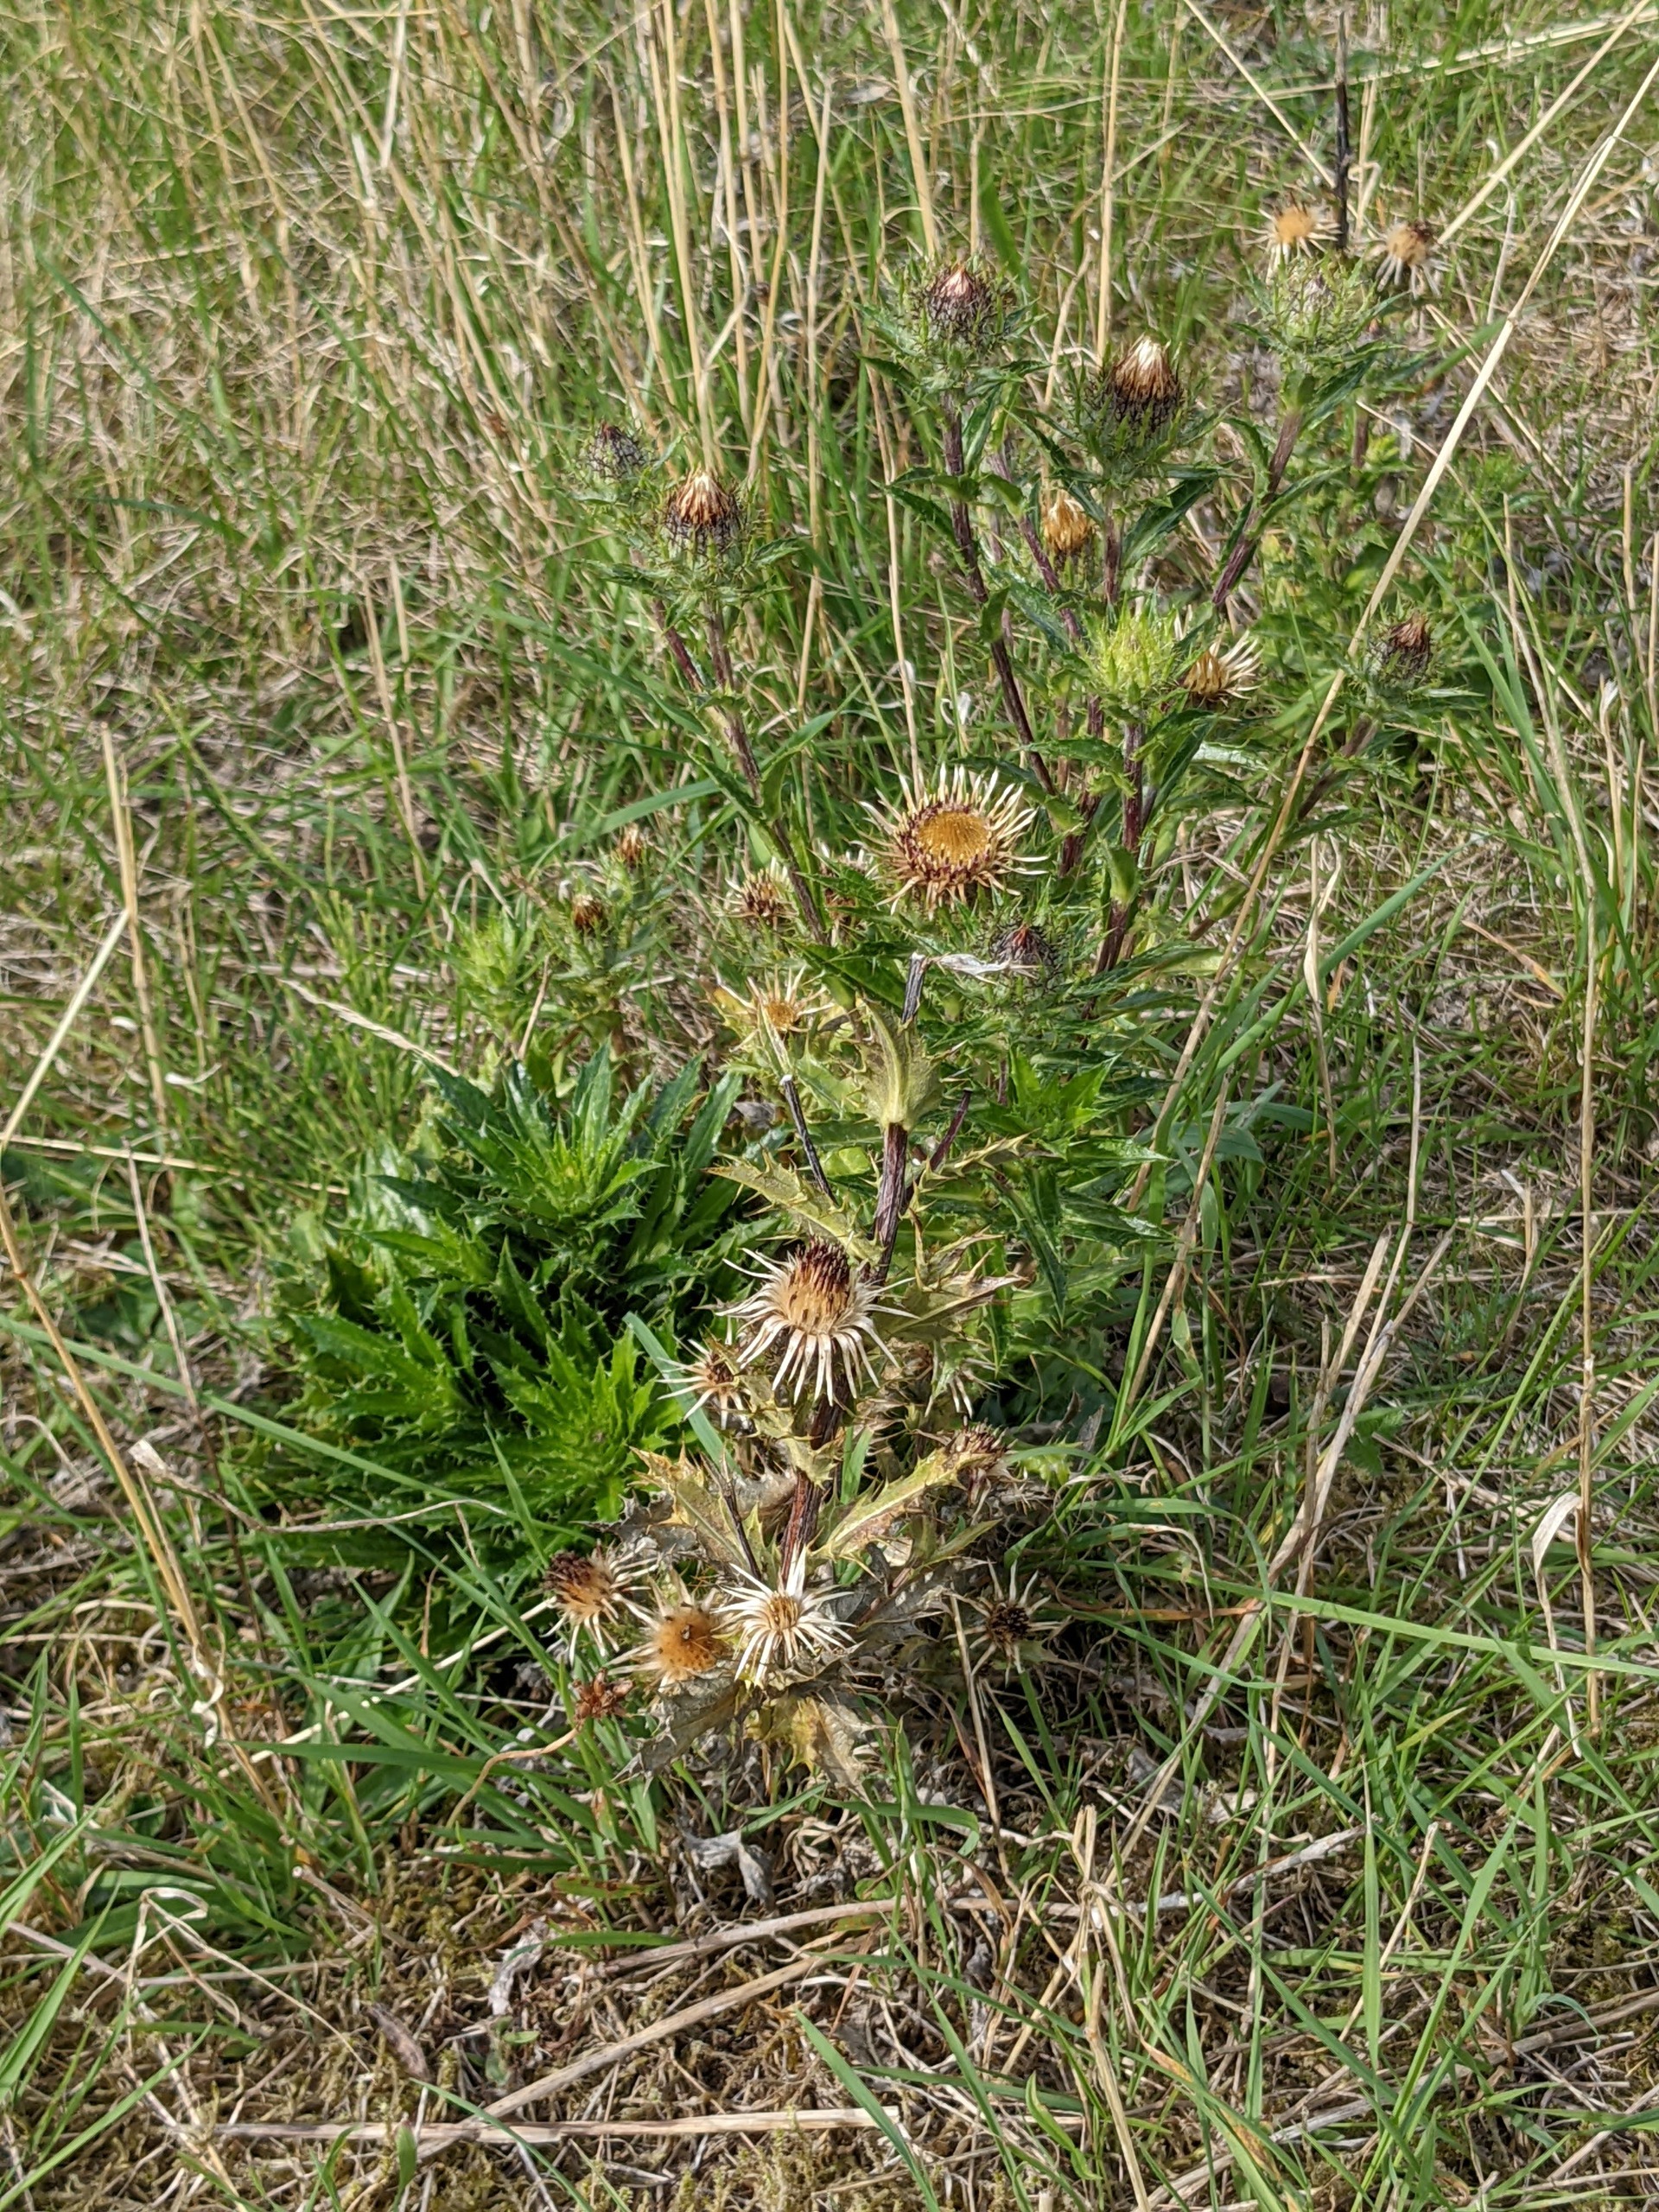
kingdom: Plantae
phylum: Tracheophyta
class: Magnoliopsida
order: Asterales
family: Asteraceae
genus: Carlina
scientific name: Carlina vulgaris
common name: Bakketidsel
